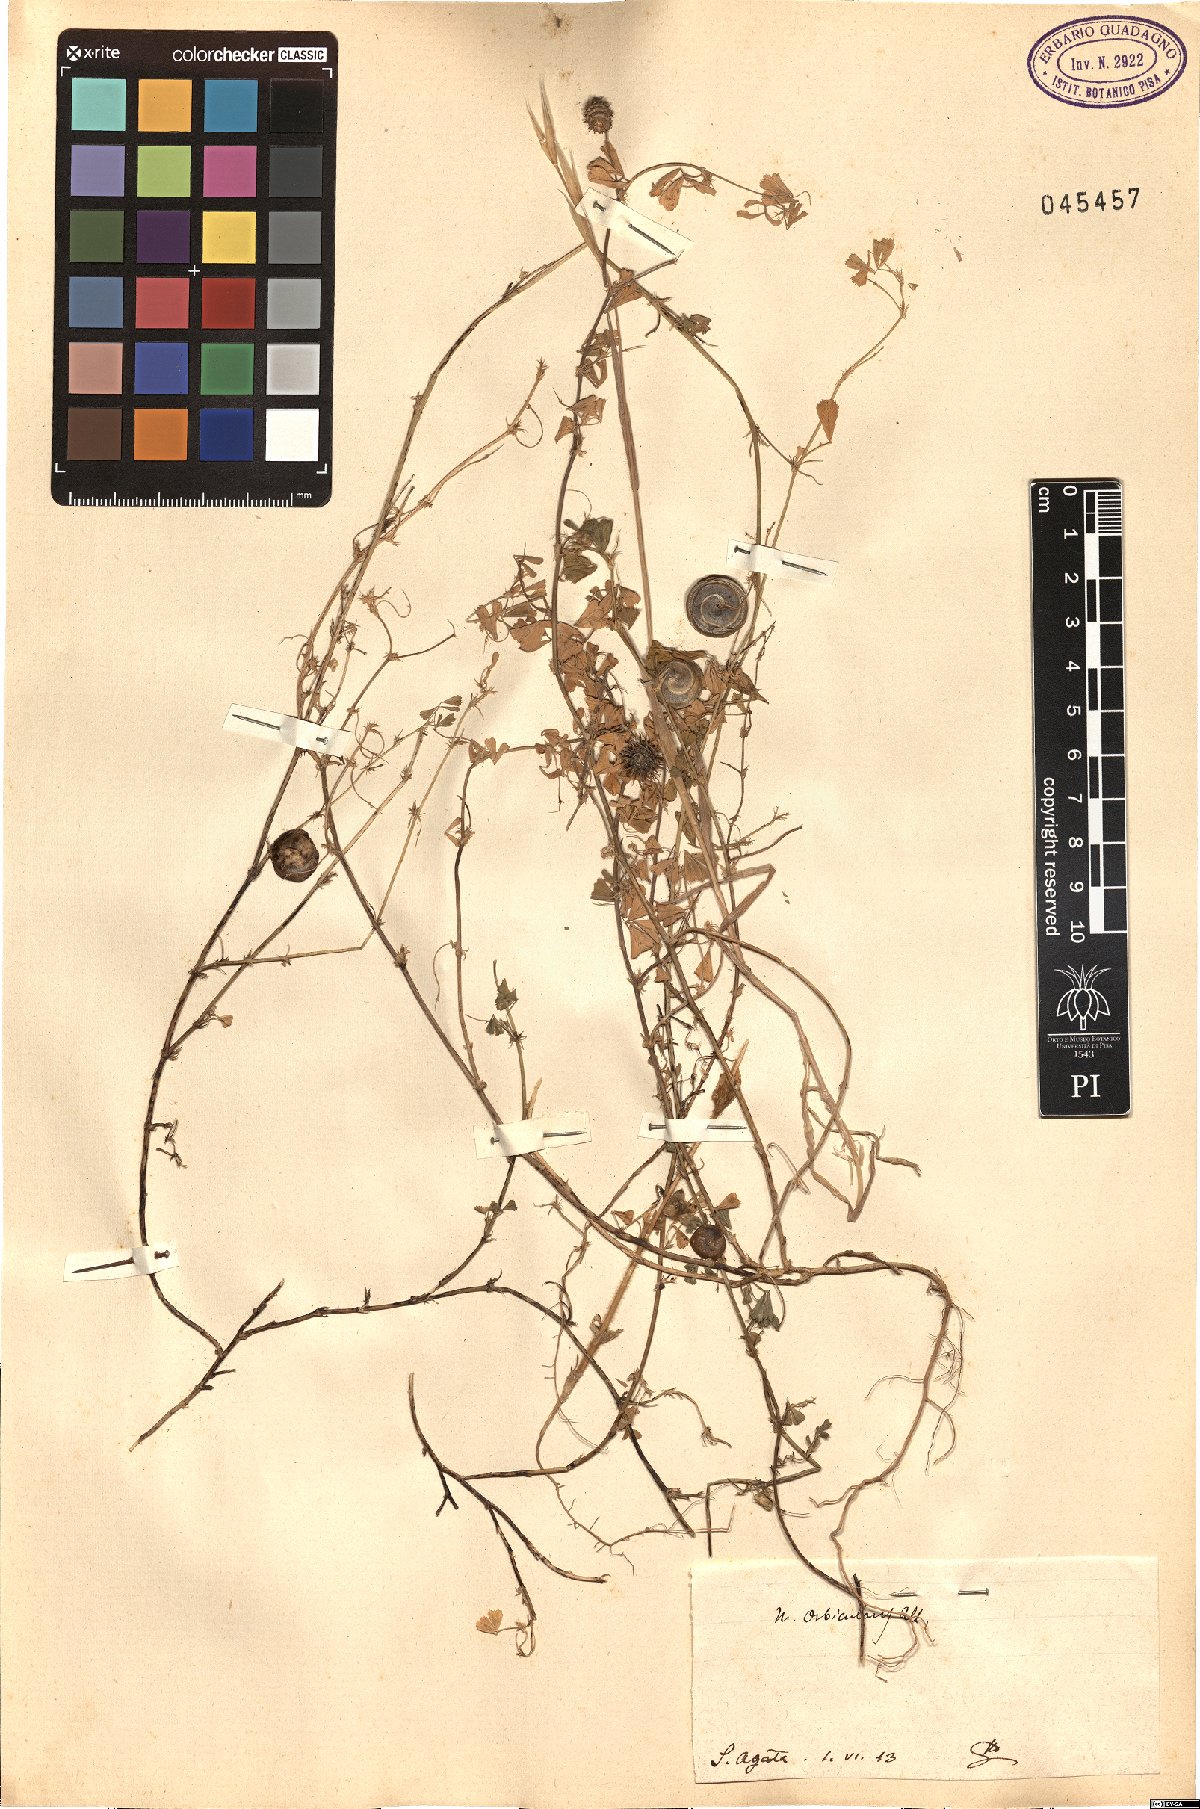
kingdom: Plantae
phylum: Tracheophyta
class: Magnoliopsida
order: Fabales
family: Fabaceae
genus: Medicago
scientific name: Medicago orbicularis
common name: Button medick
